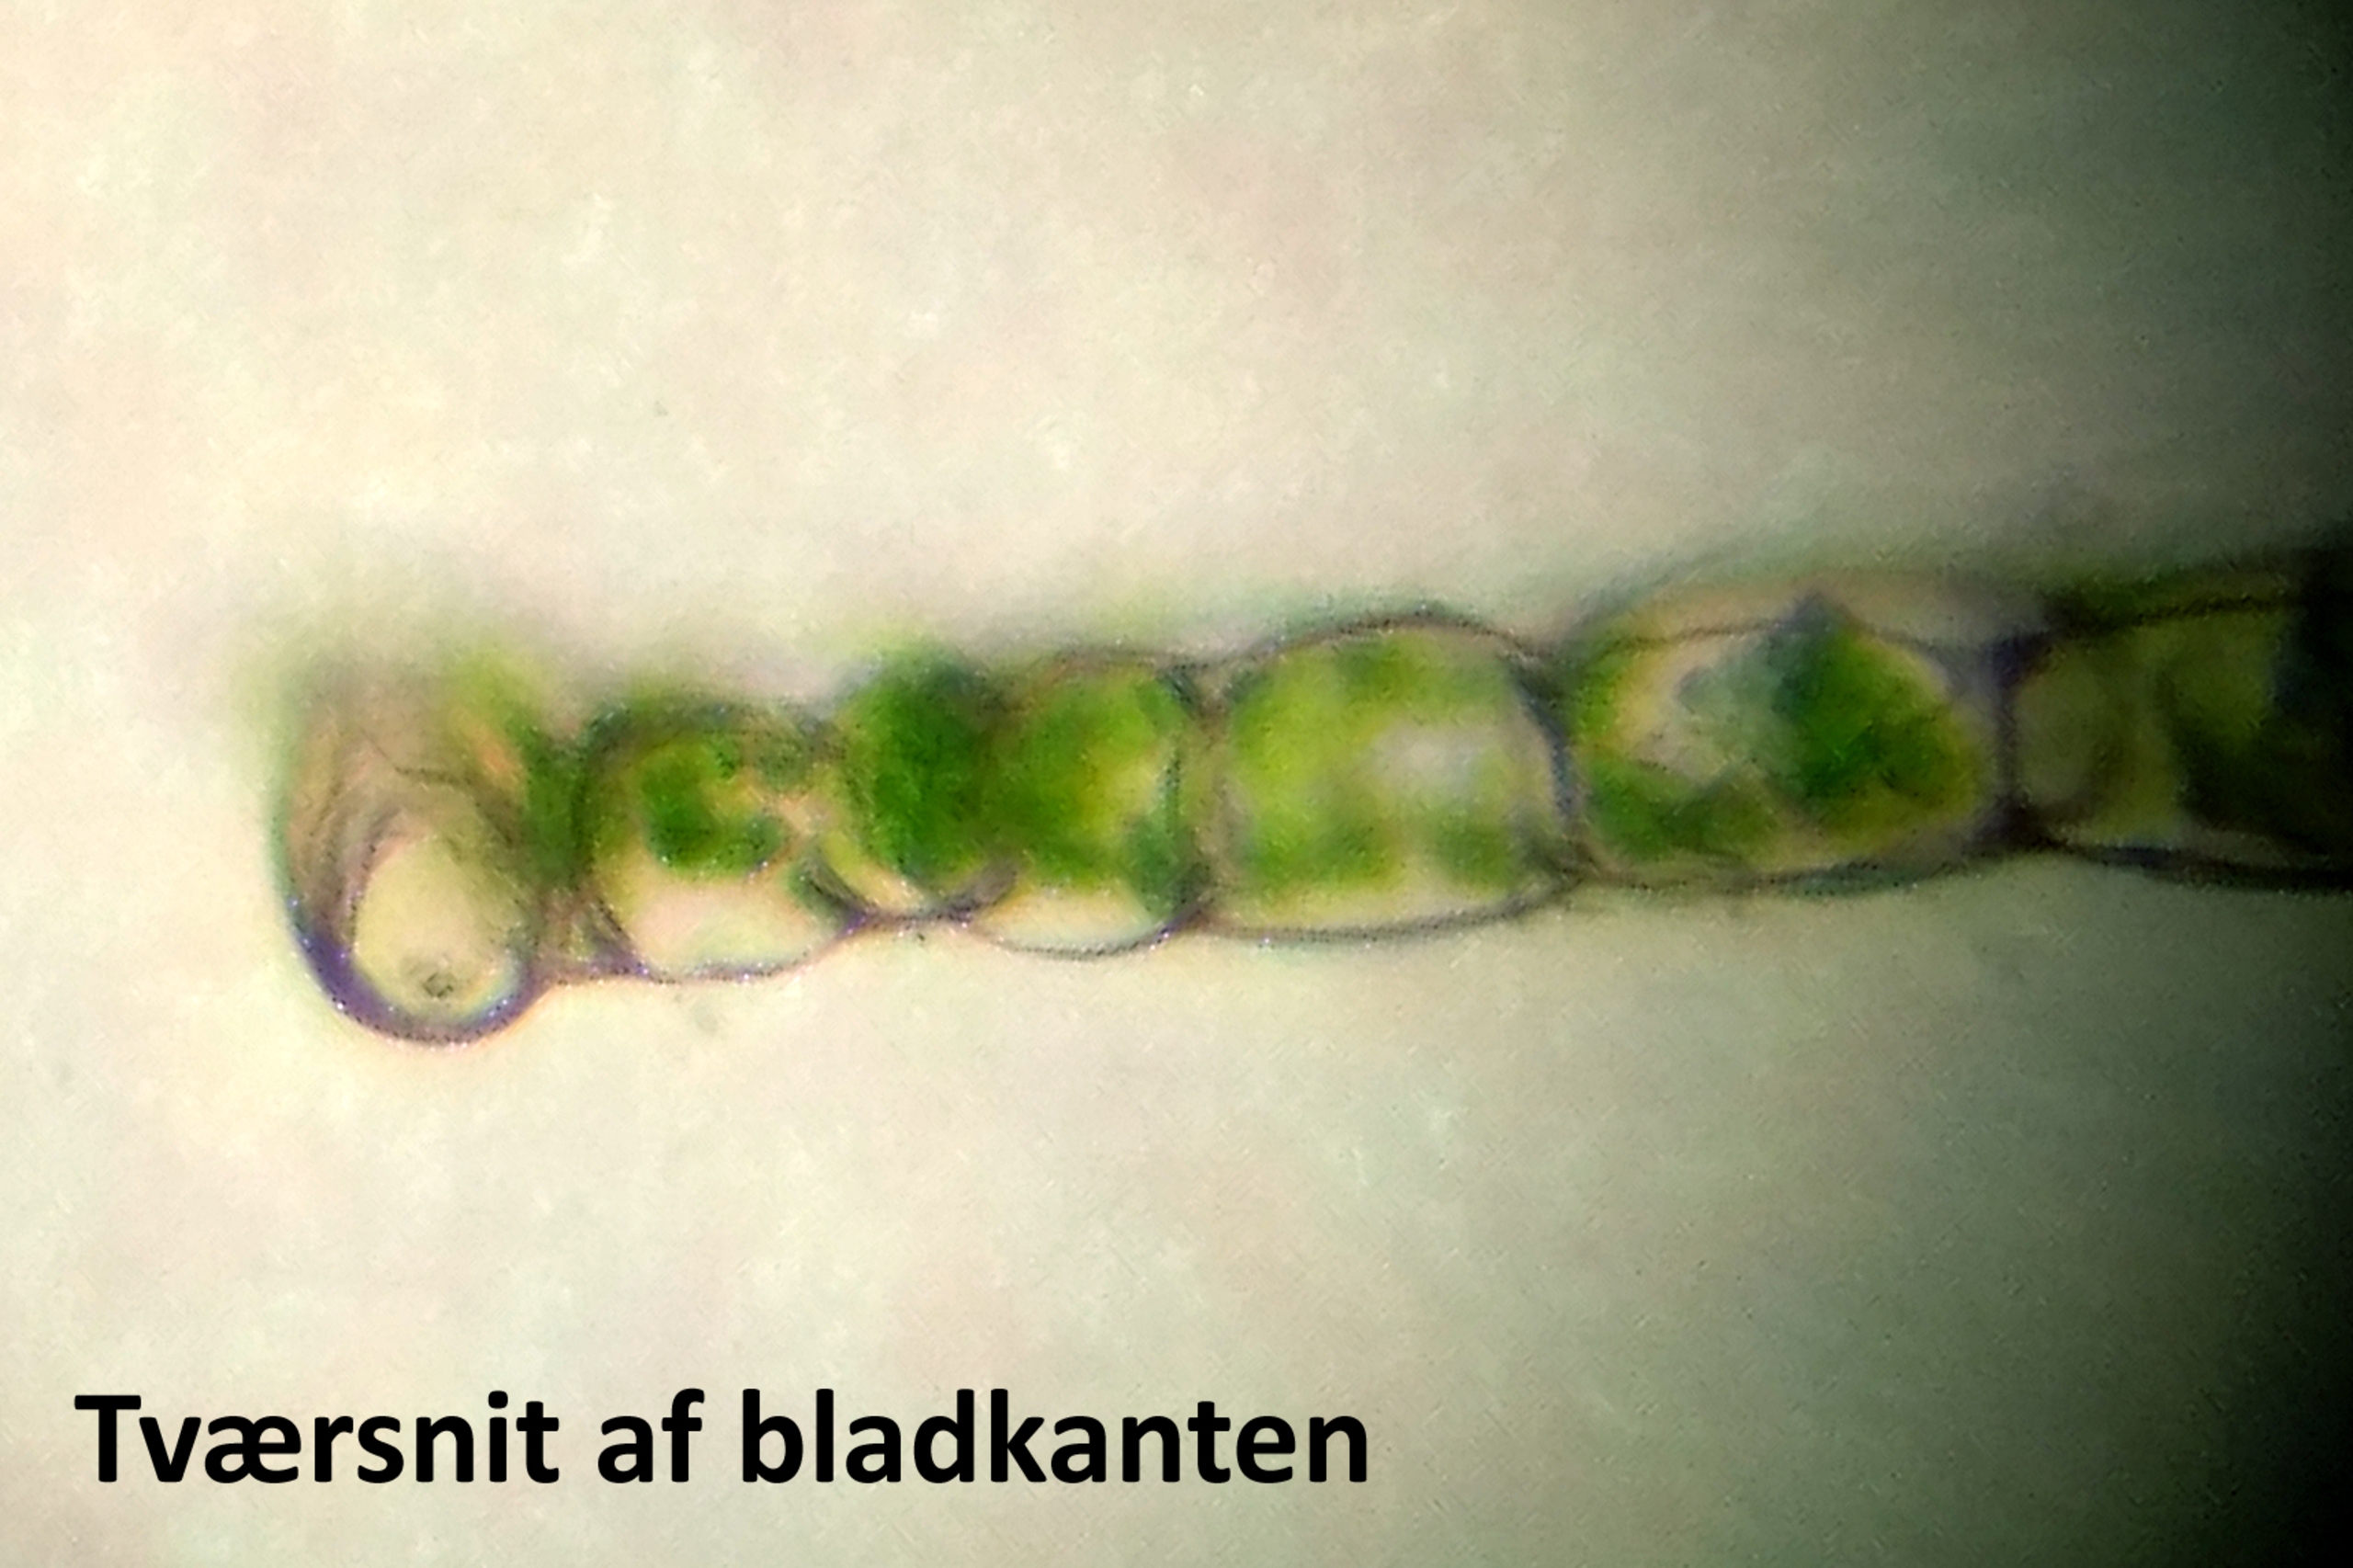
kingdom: Plantae
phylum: Bryophyta
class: Bryopsida
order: Bryales
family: Mniaceae
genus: Rhizomnium
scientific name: Rhizomnium pseudopunctatum
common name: Kær-bredblad
